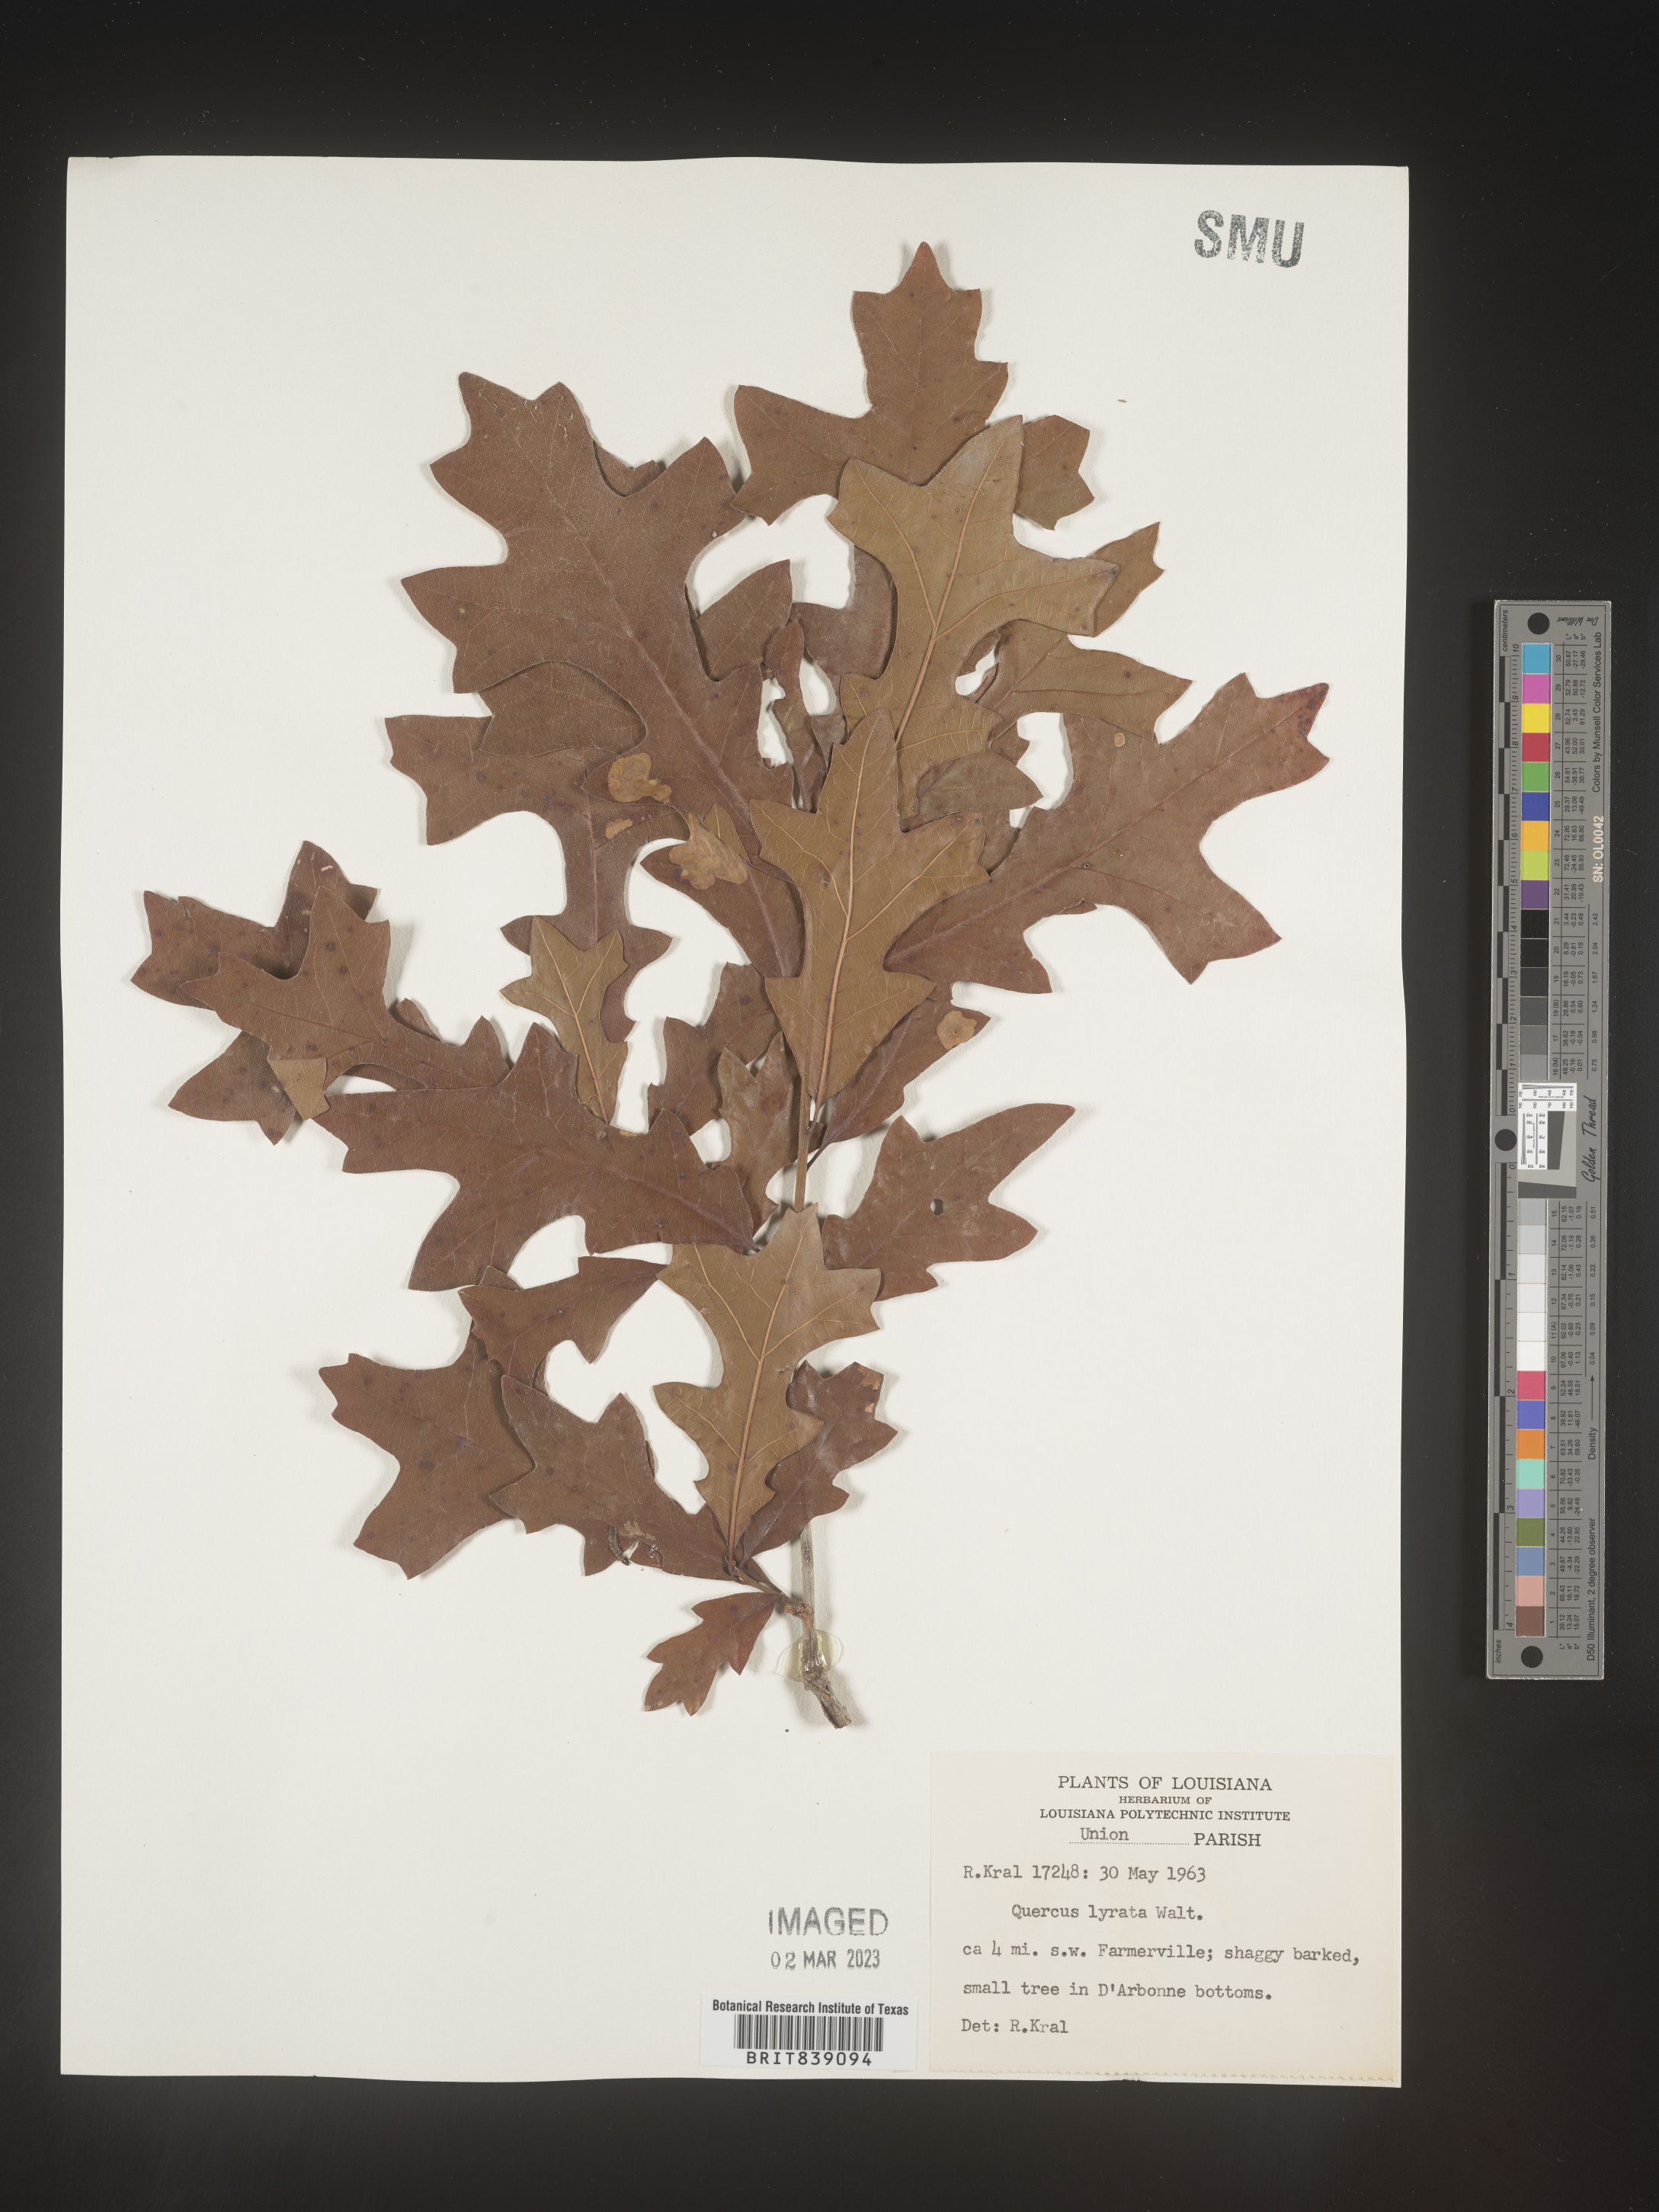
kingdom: Plantae
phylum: Tracheophyta
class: Magnoliopsida
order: Fagales
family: Fagaceae
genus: Quercus
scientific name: Quercus lyrata
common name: Overcup oak
